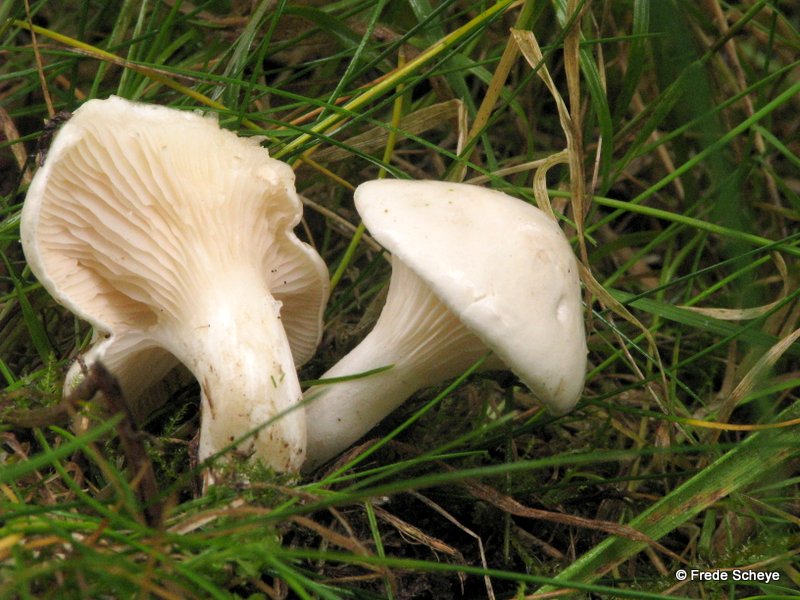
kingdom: Fungi
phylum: Basidiomycota
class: Agaricomycetes
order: Agaricales
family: Entolomataceae
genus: Clitopilus
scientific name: Clitopilus prunulus
